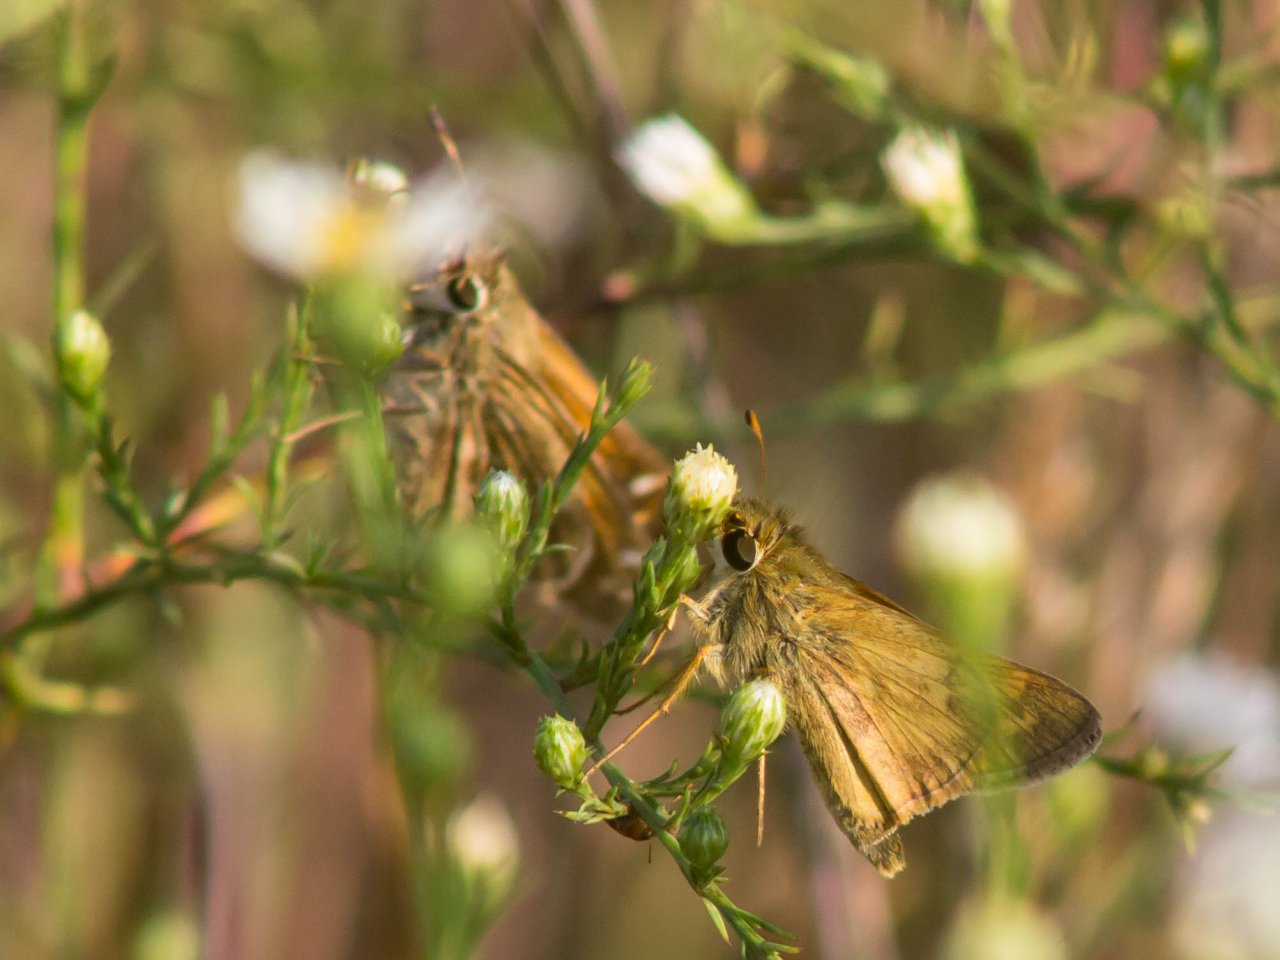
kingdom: Animalia
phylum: Arthropoda
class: Insecta
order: Lepidoptera
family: Hesperiidae
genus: Atalopedes
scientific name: Atalopedes campestris
